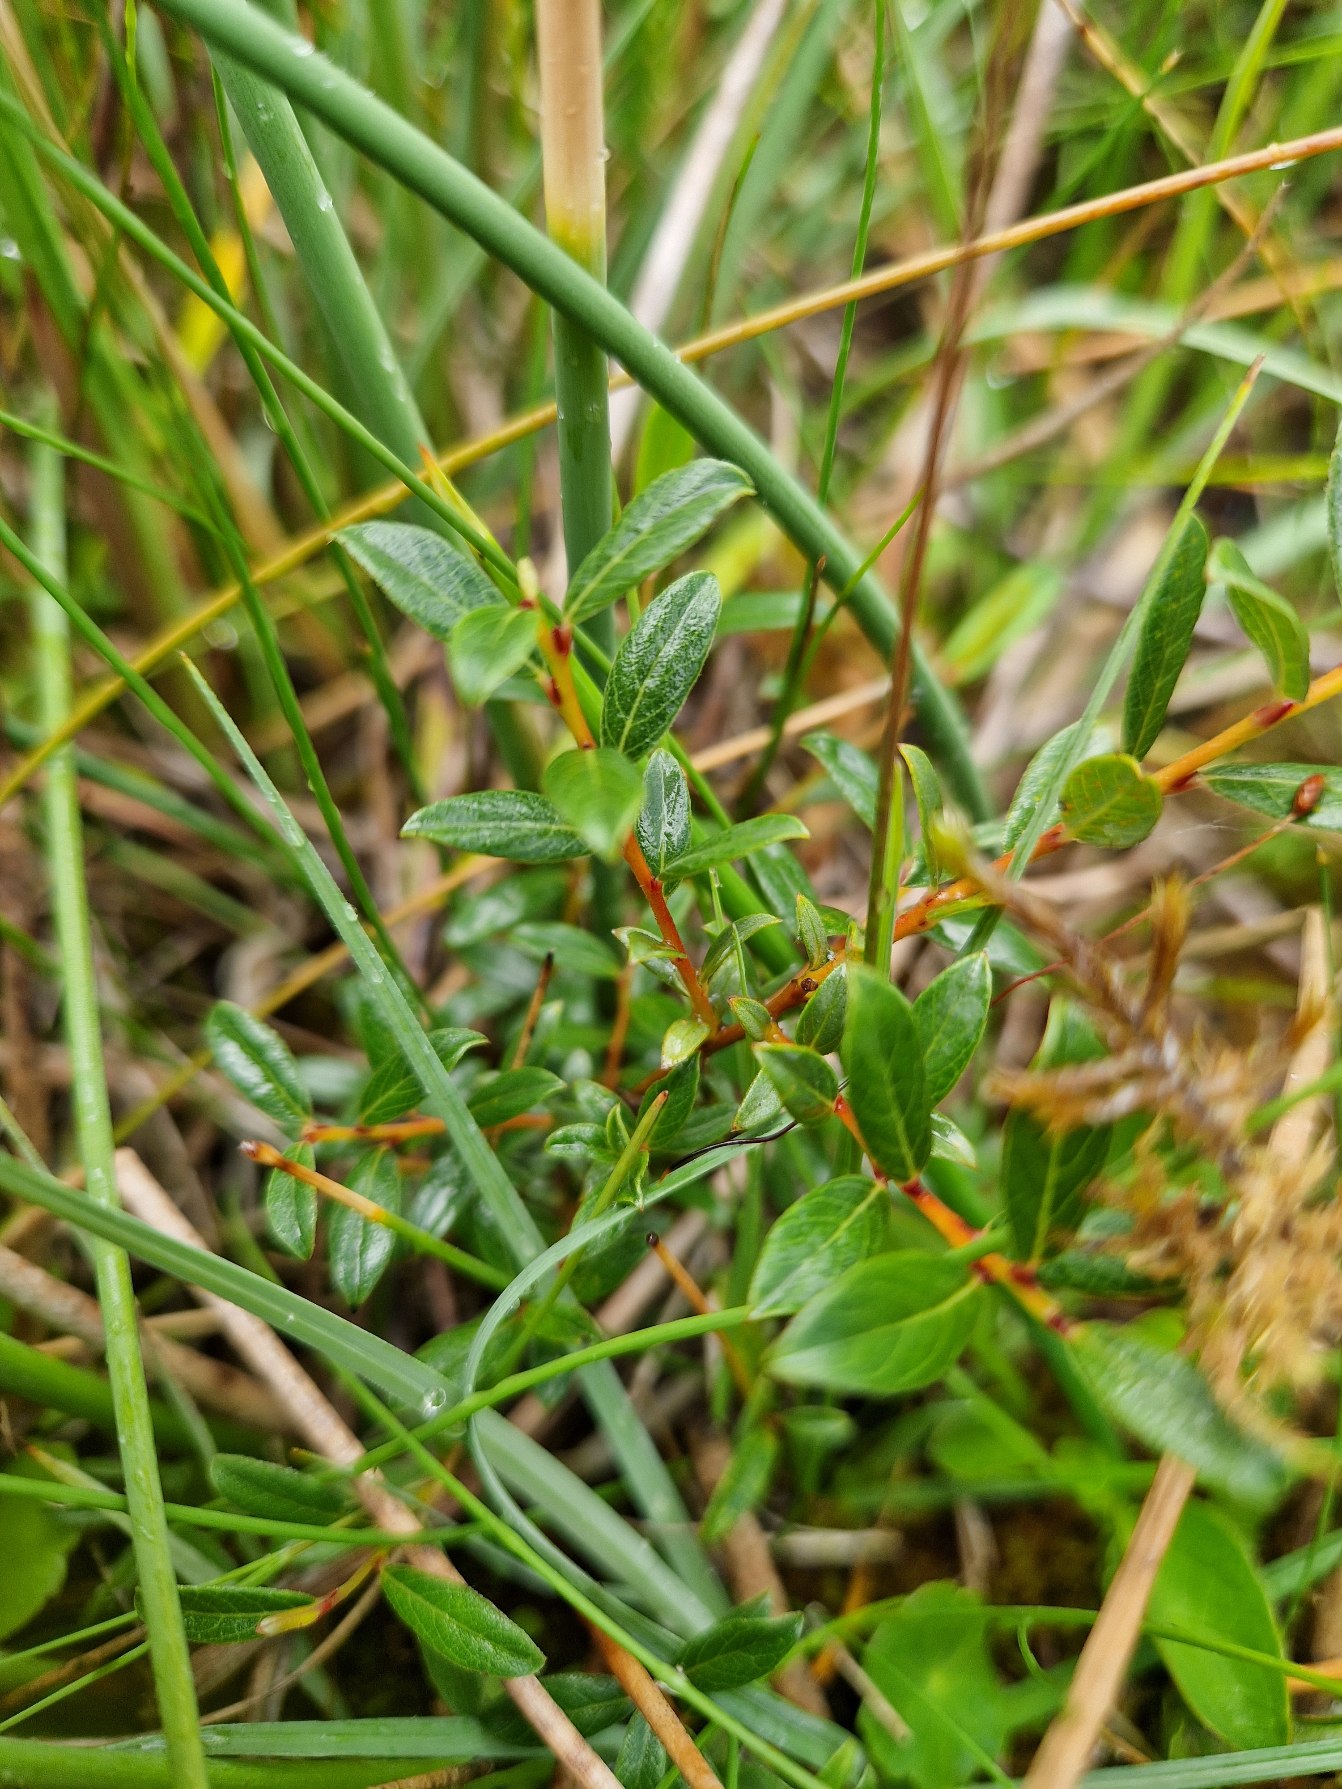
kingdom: Plantae
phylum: Tracheophyta
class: Magnoliopsida
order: Malpighiales
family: Salicaceae
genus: Salix
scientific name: Salix repens
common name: Krybende pil
